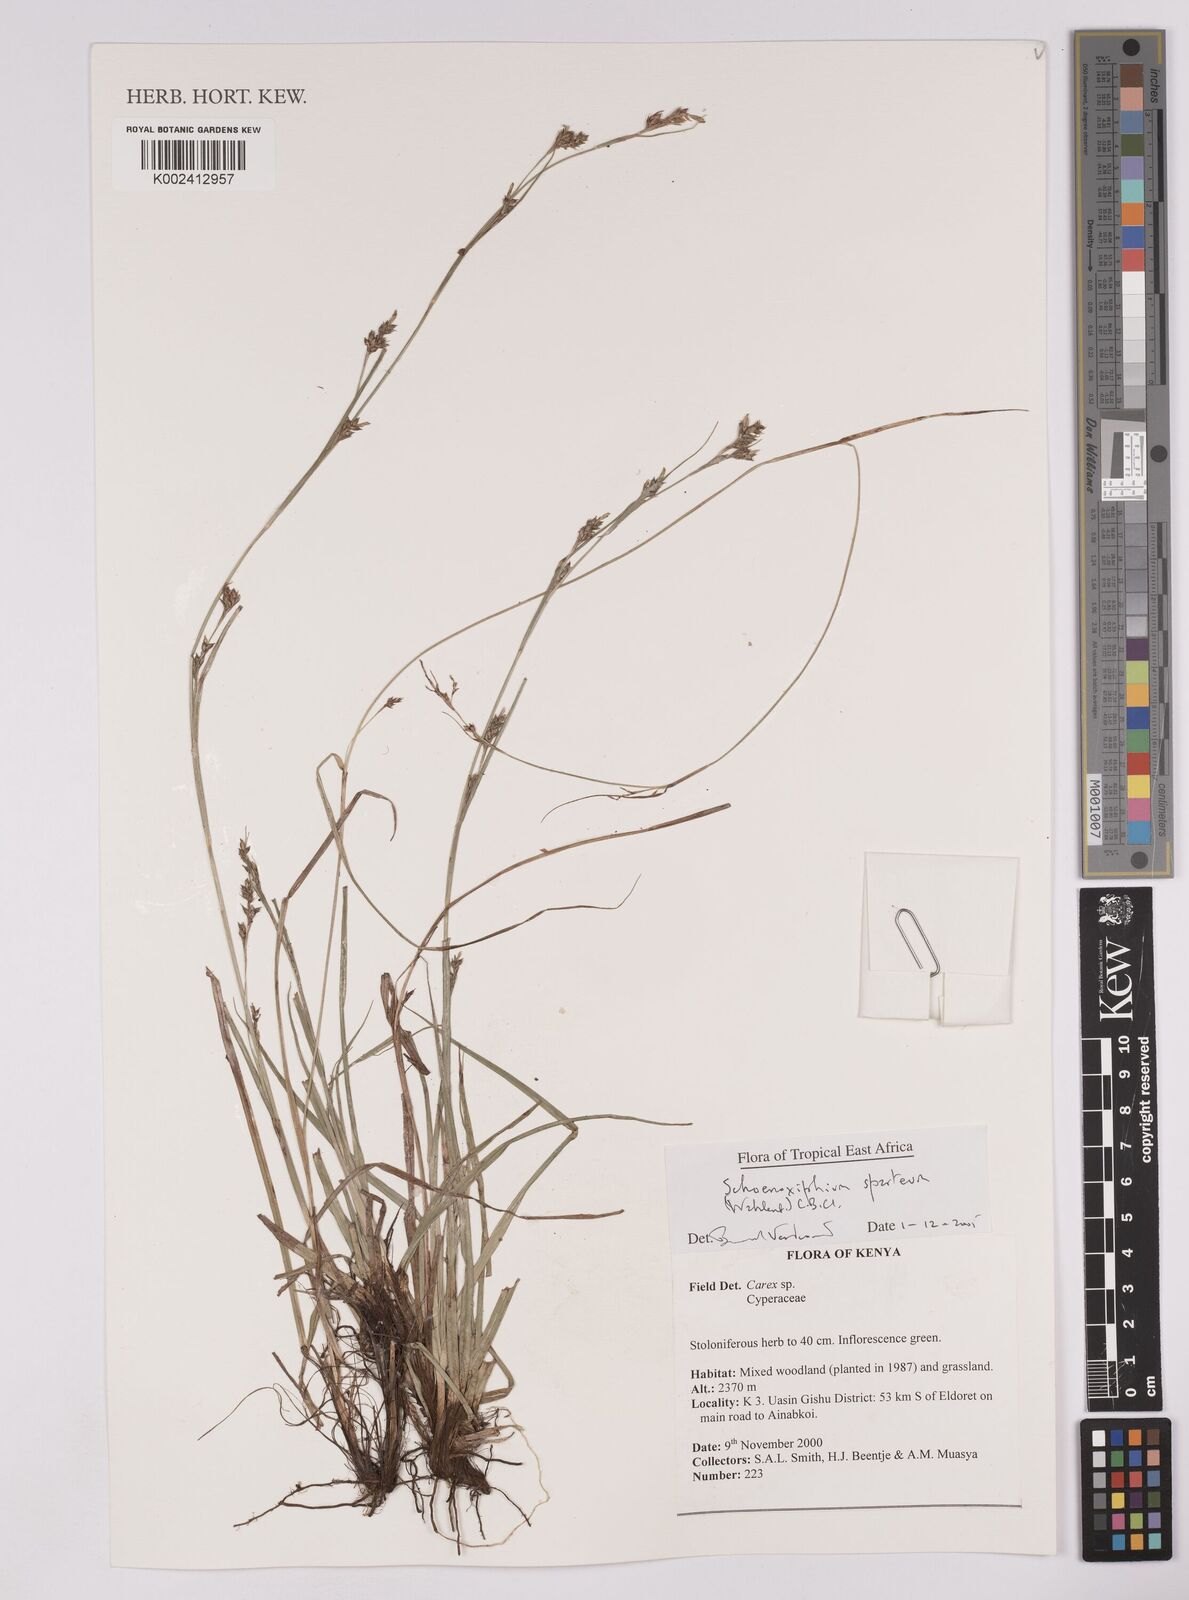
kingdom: Plantae
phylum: Tracheophyta
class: Liliopsida
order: Poales
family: Cyperaceae
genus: Carex
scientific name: Carex schimperiana
